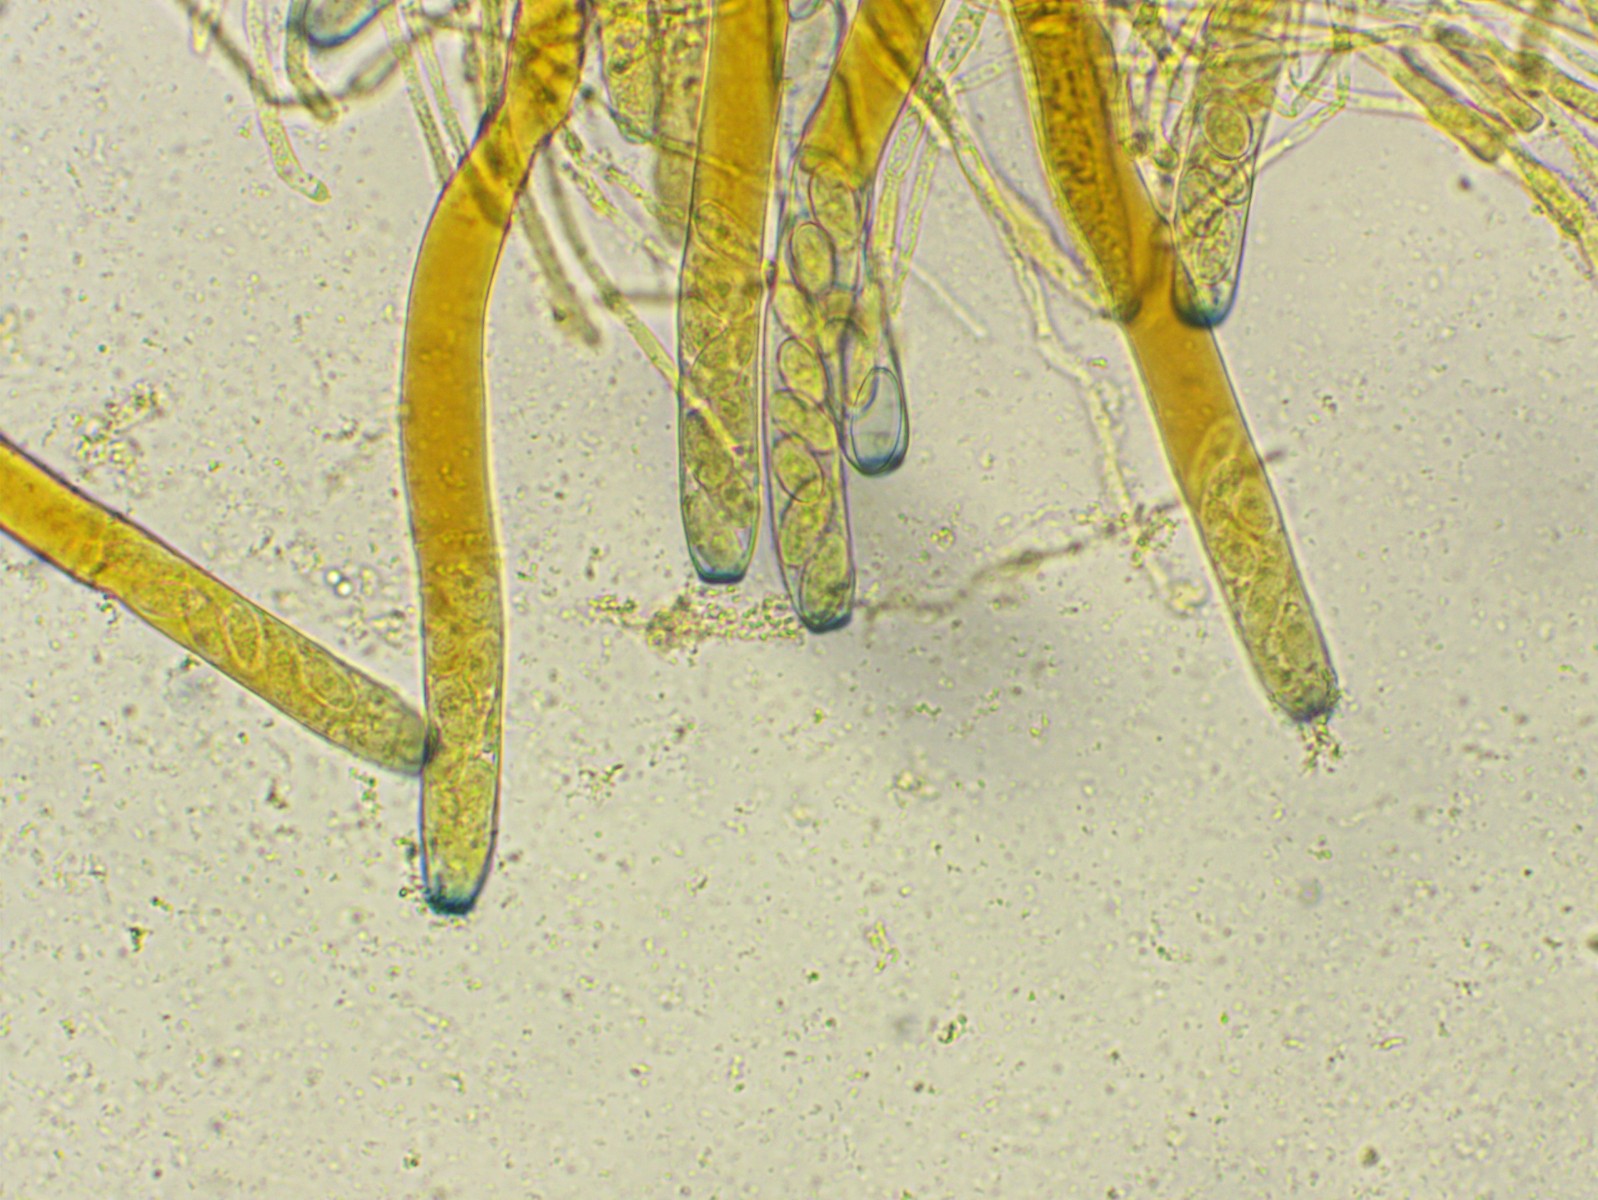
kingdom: Fungi
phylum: Ascomycota
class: Pezizomycetes
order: Pezizales
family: Pezizaceae
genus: Peziza
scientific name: Peziza
